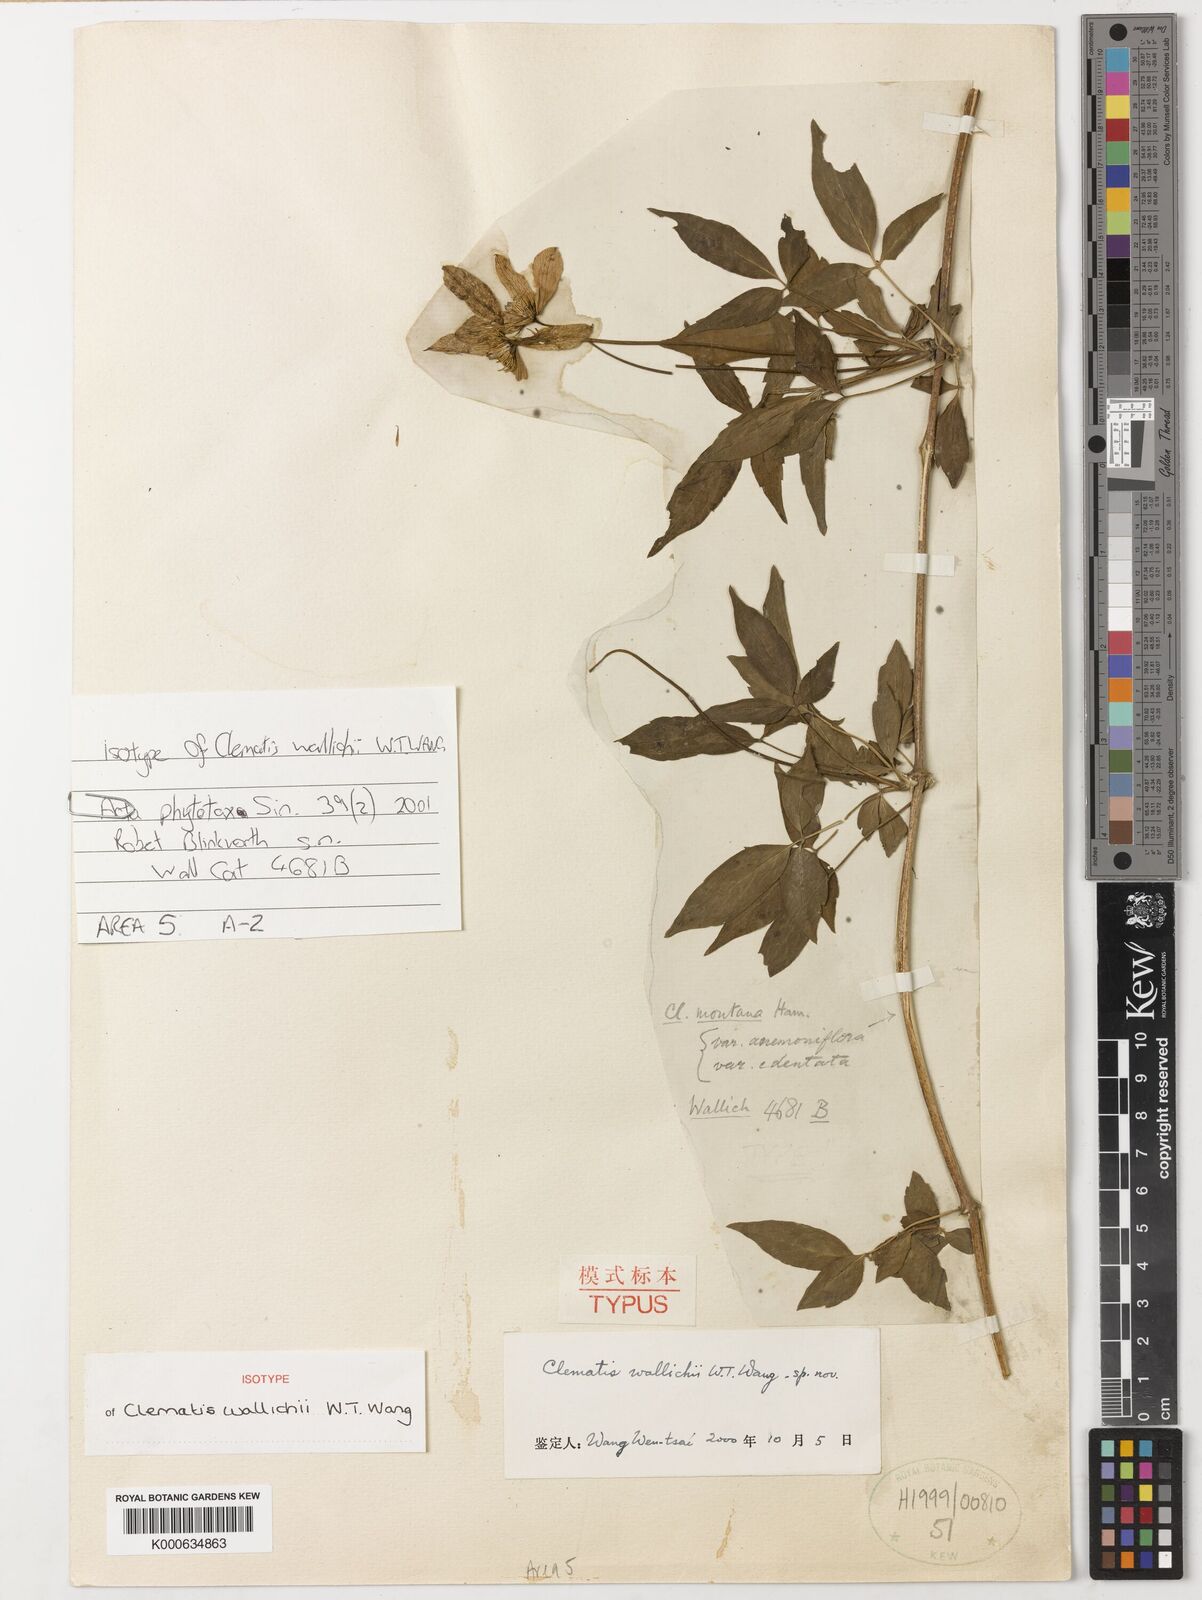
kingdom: Plantae
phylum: Tracheophyta
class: Magnoliopsida
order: Ranunculales
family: Ranunculaceae
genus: Clematis
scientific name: Clematis wallichii
